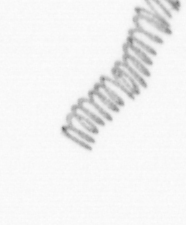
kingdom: Chromista
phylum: Ochrophyta
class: Bacillariophyceae
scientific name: Bacillariophyceae
